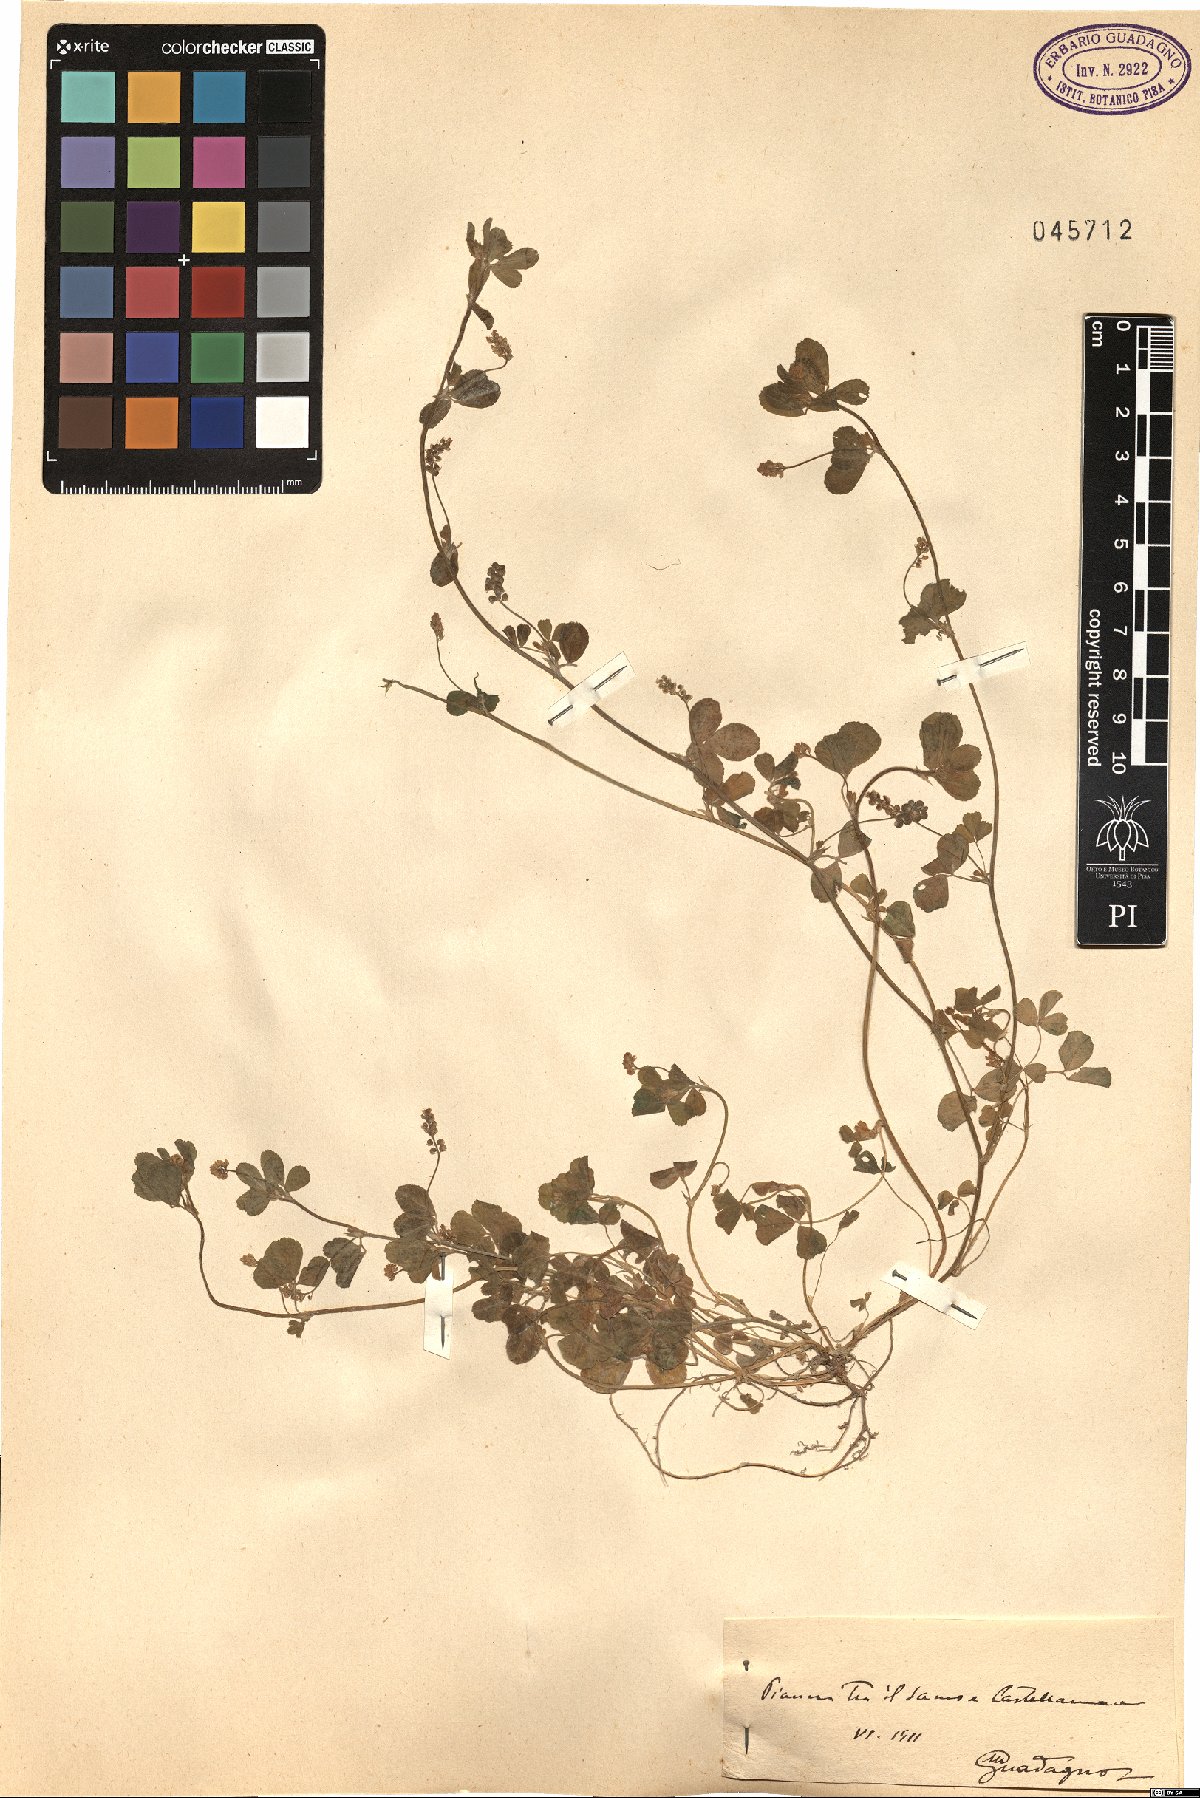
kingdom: Plantae
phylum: Tracheophyta
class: Magnoliopsida
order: Fabales
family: Fabaceae
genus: Medicago
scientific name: Medicago
